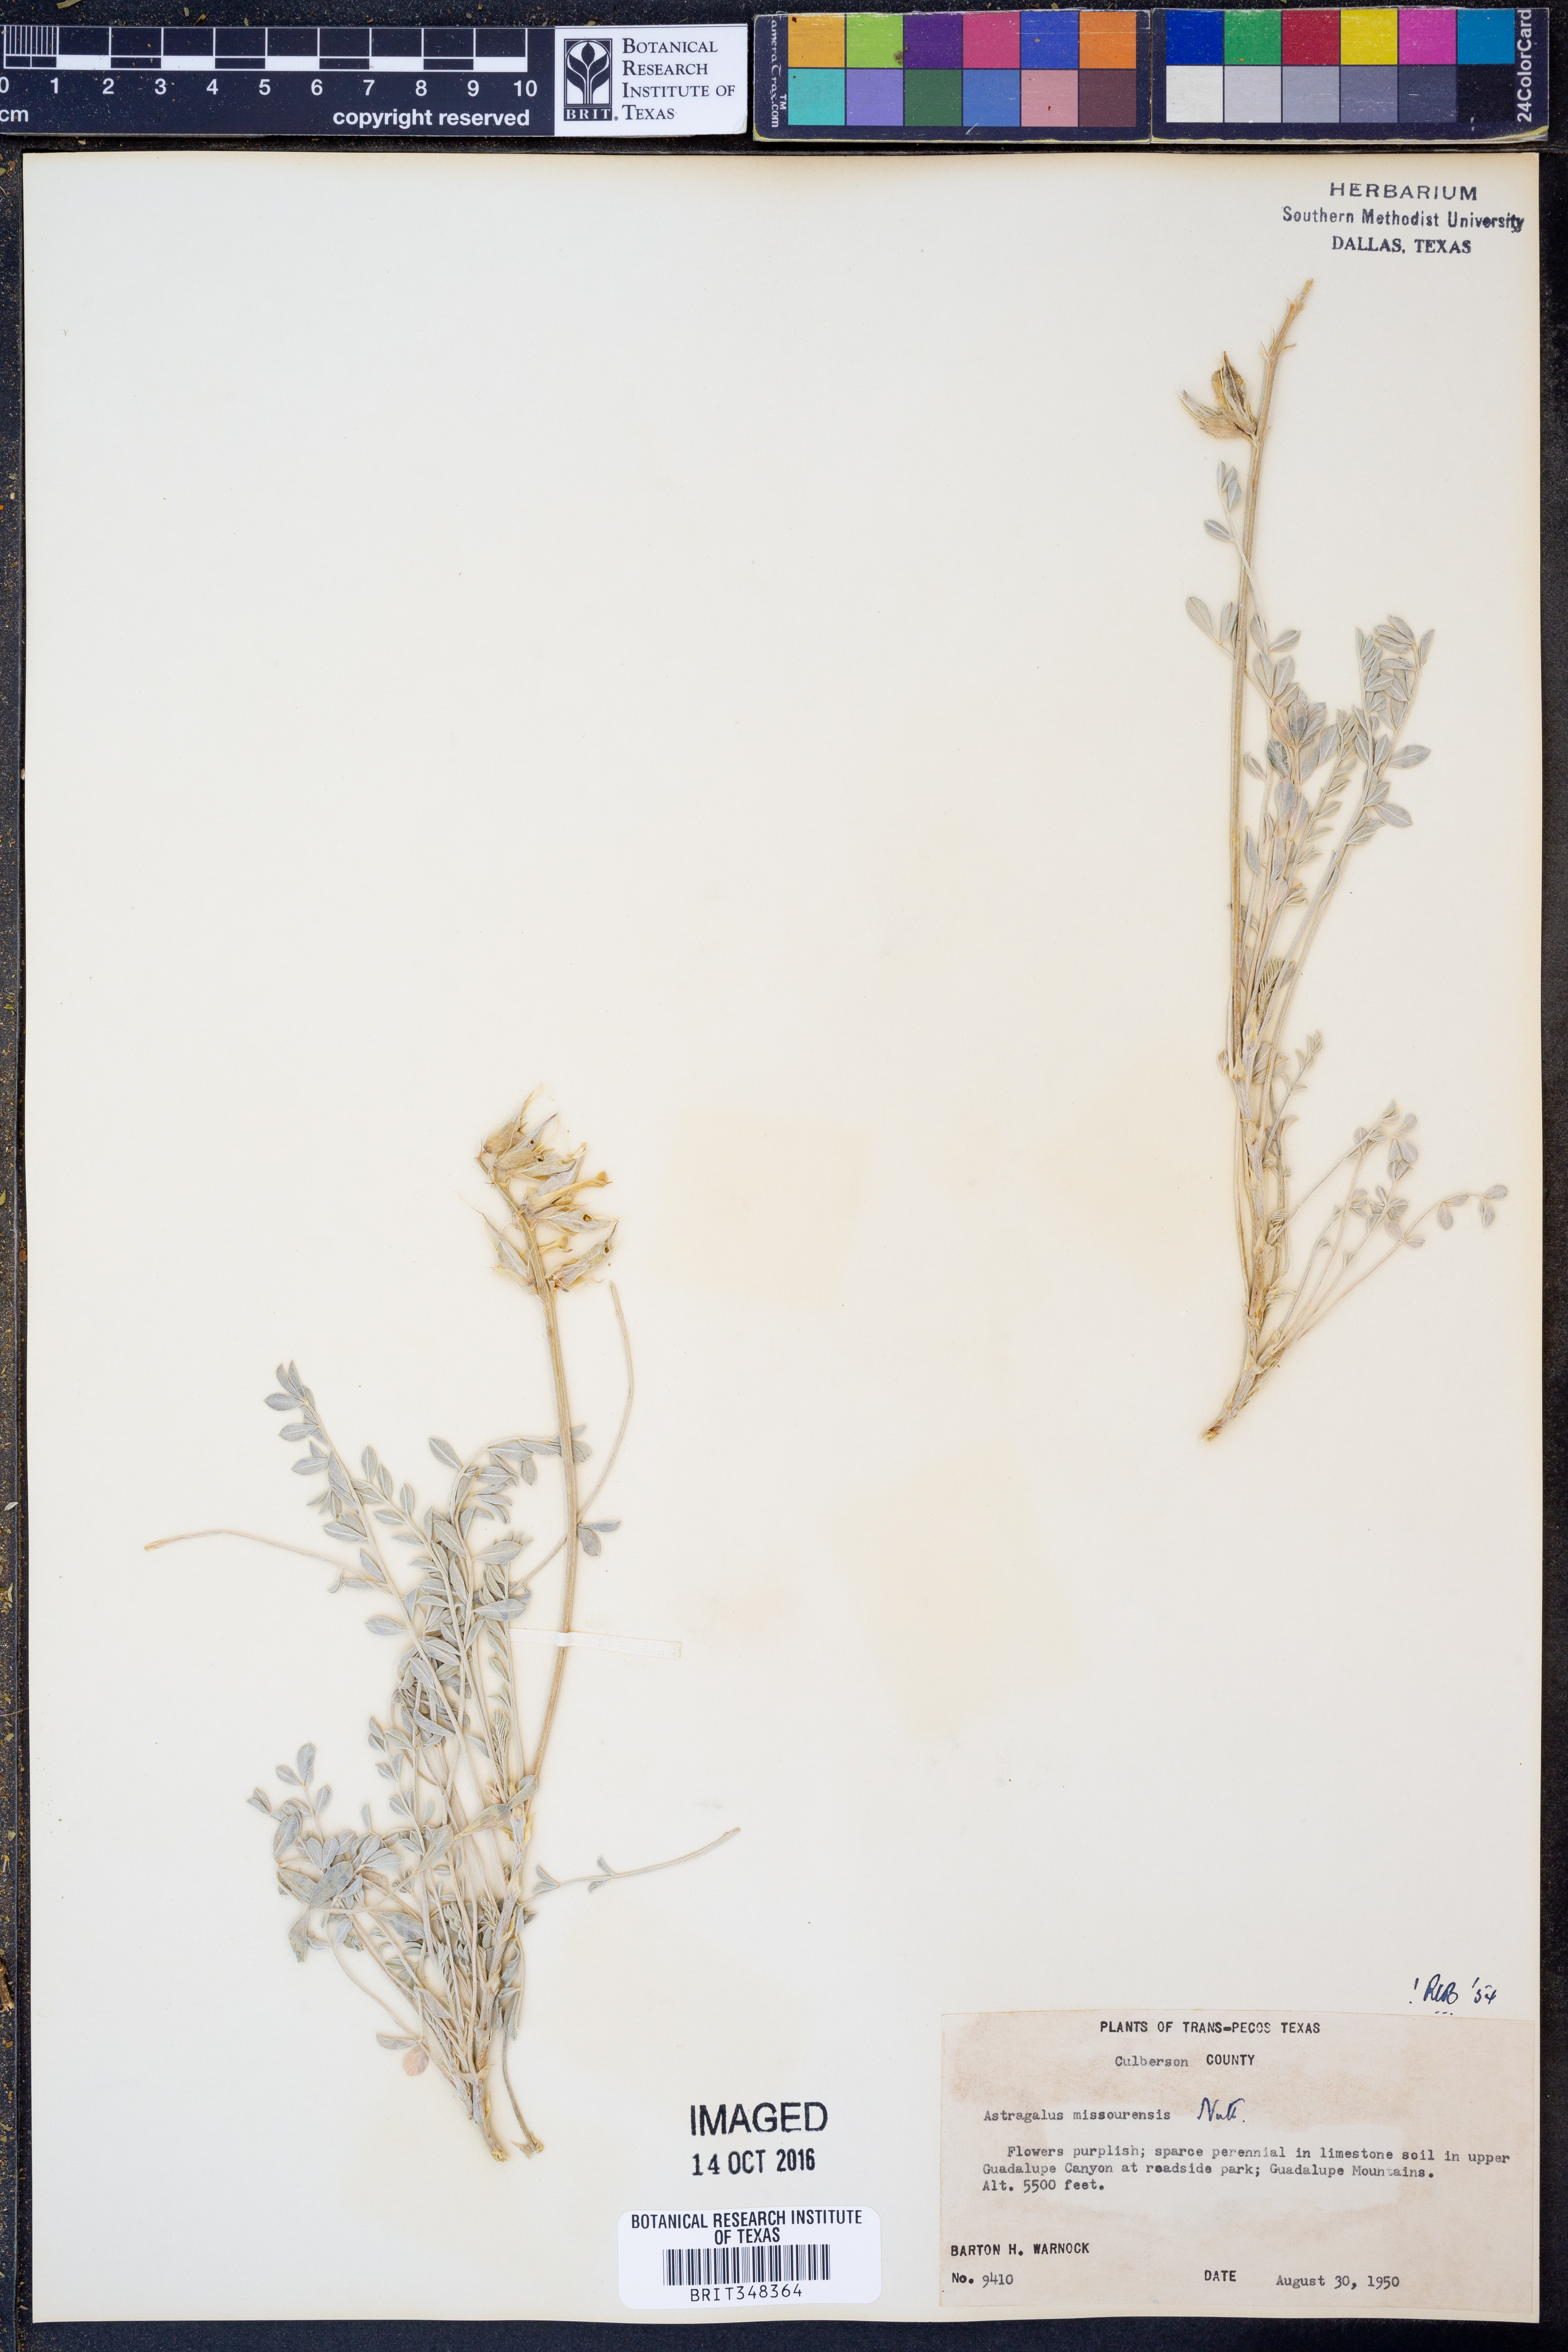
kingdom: Plantae
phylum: Tracheophyta
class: Magnoliopsida
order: Fabales
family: Fabaceae
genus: Astragalus
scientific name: Astragalus missouriensis
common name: Missouri milk-vetch
